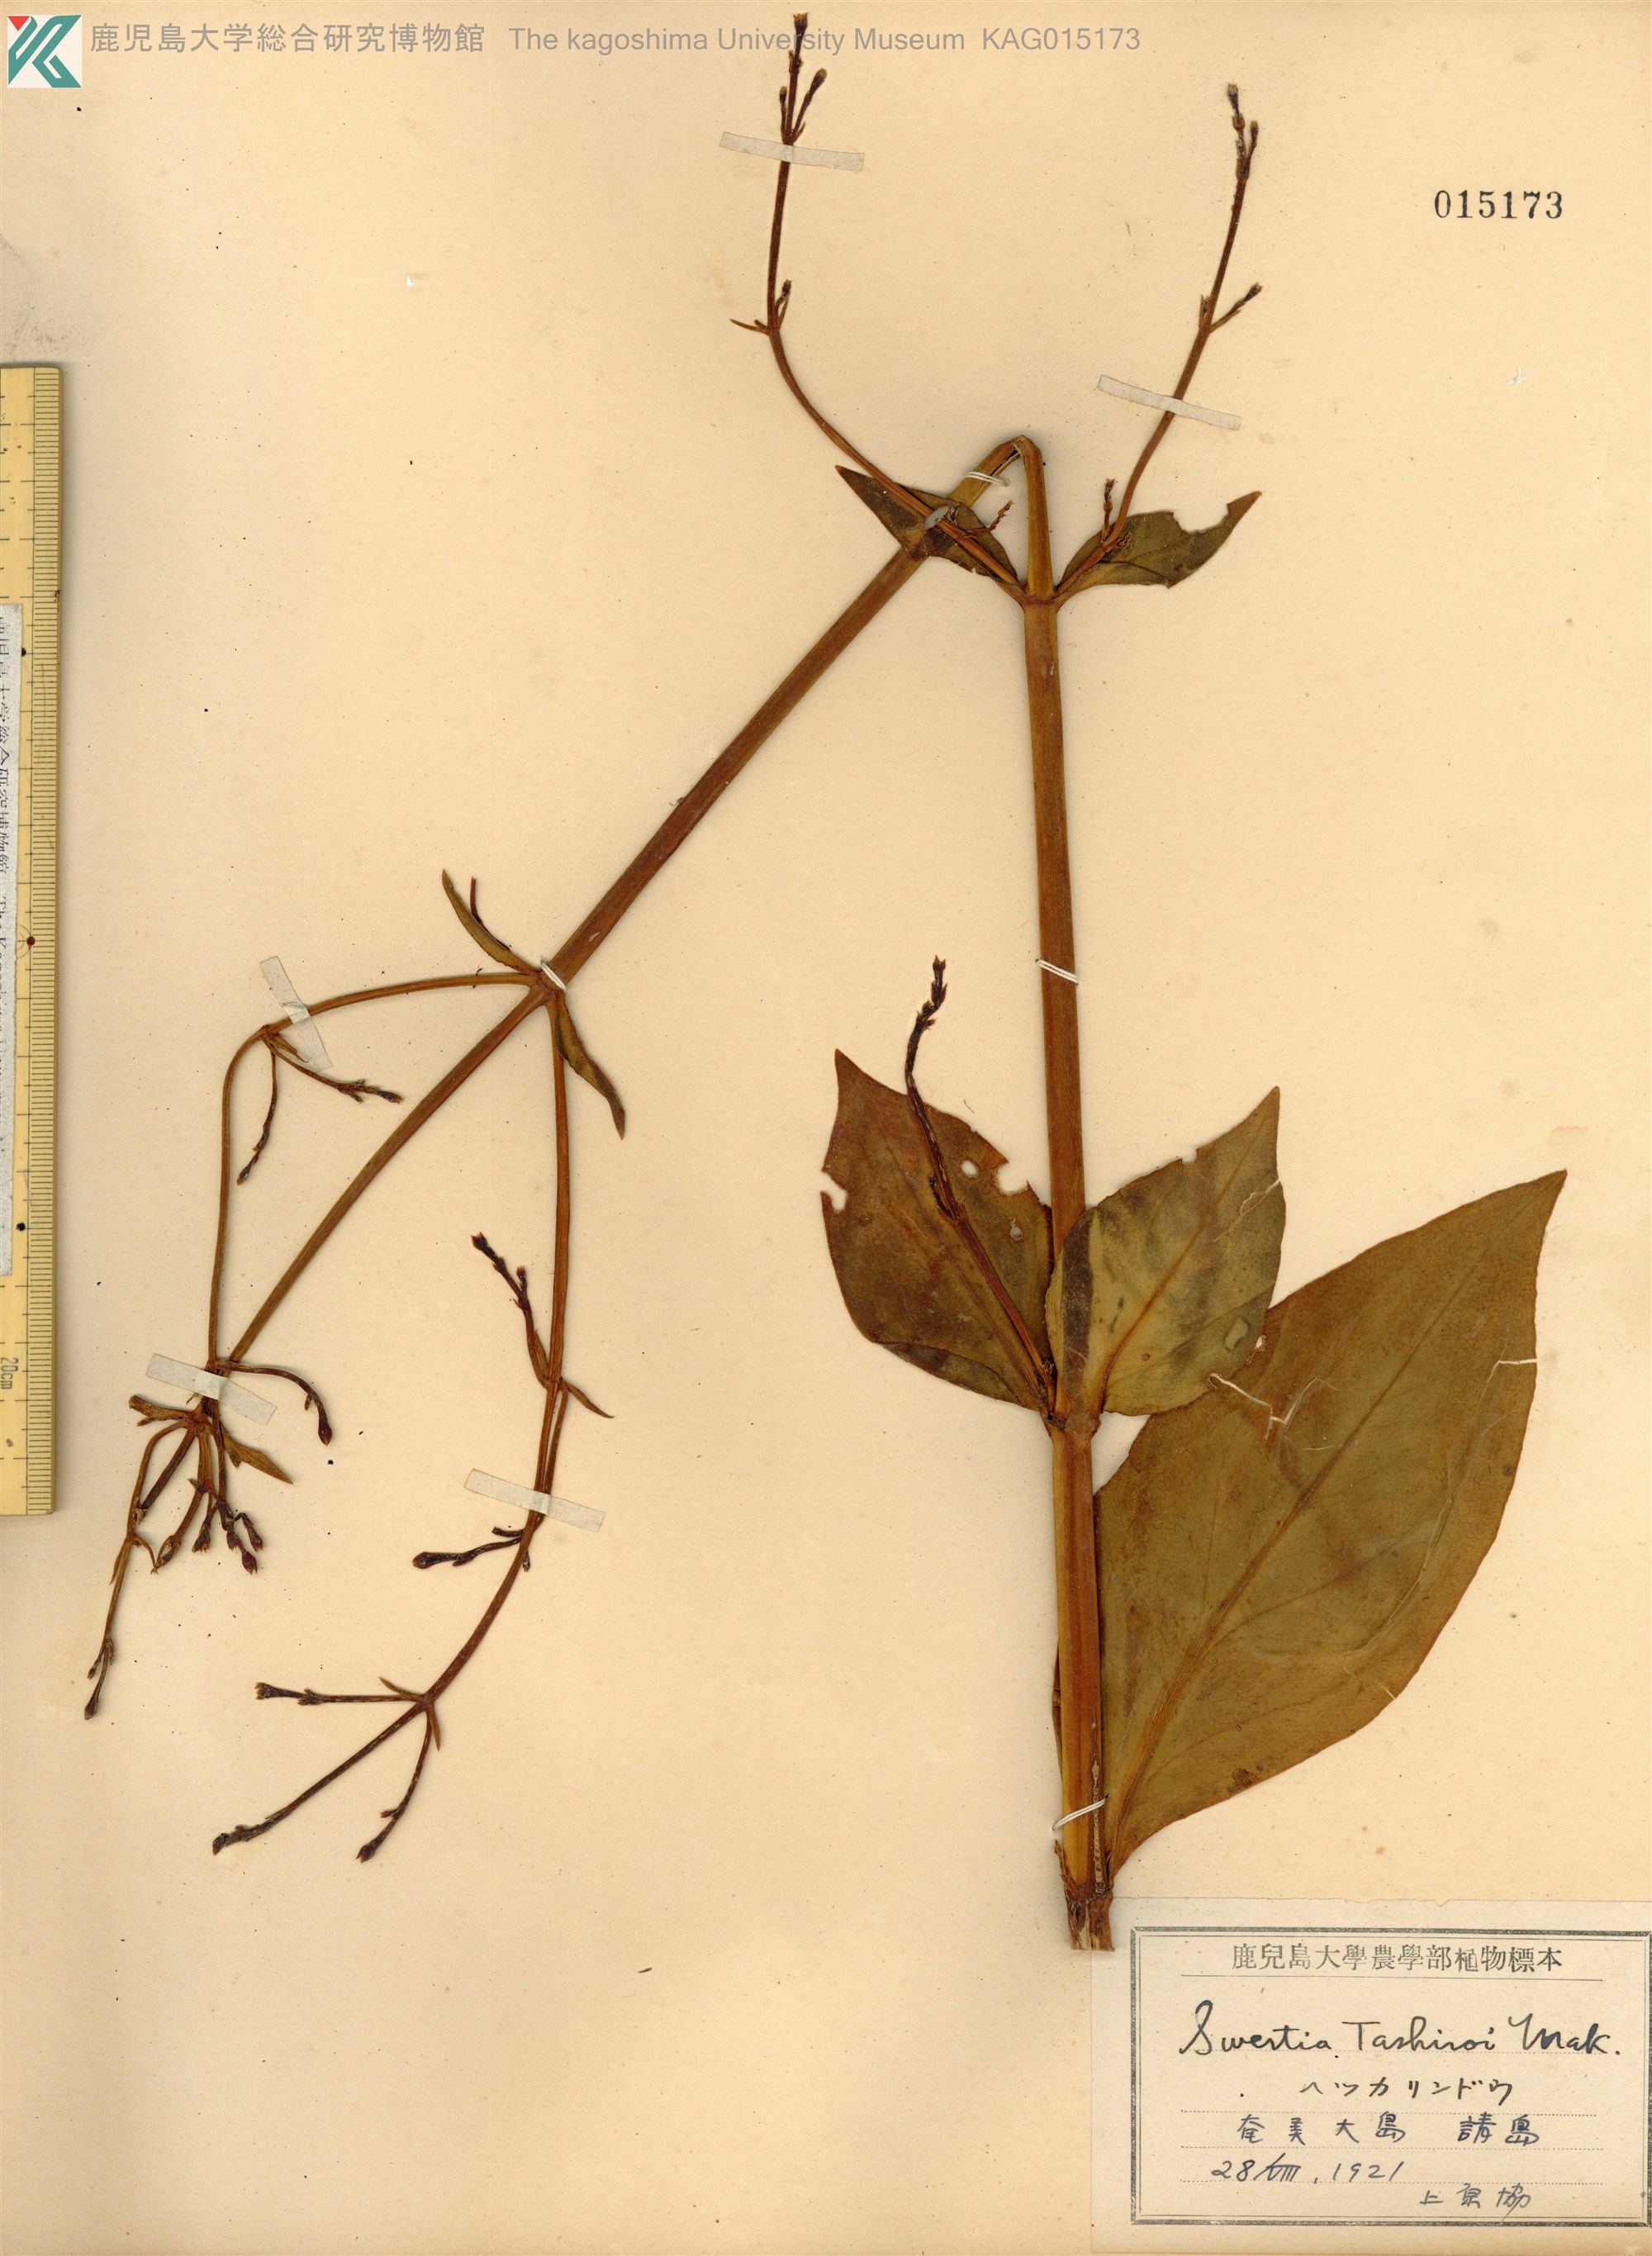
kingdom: Plantae
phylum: Tracheophyta
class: Magnoliopsida
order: Gentianales
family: Gentianaceae
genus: Swertia
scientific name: Swertia tashiroi
